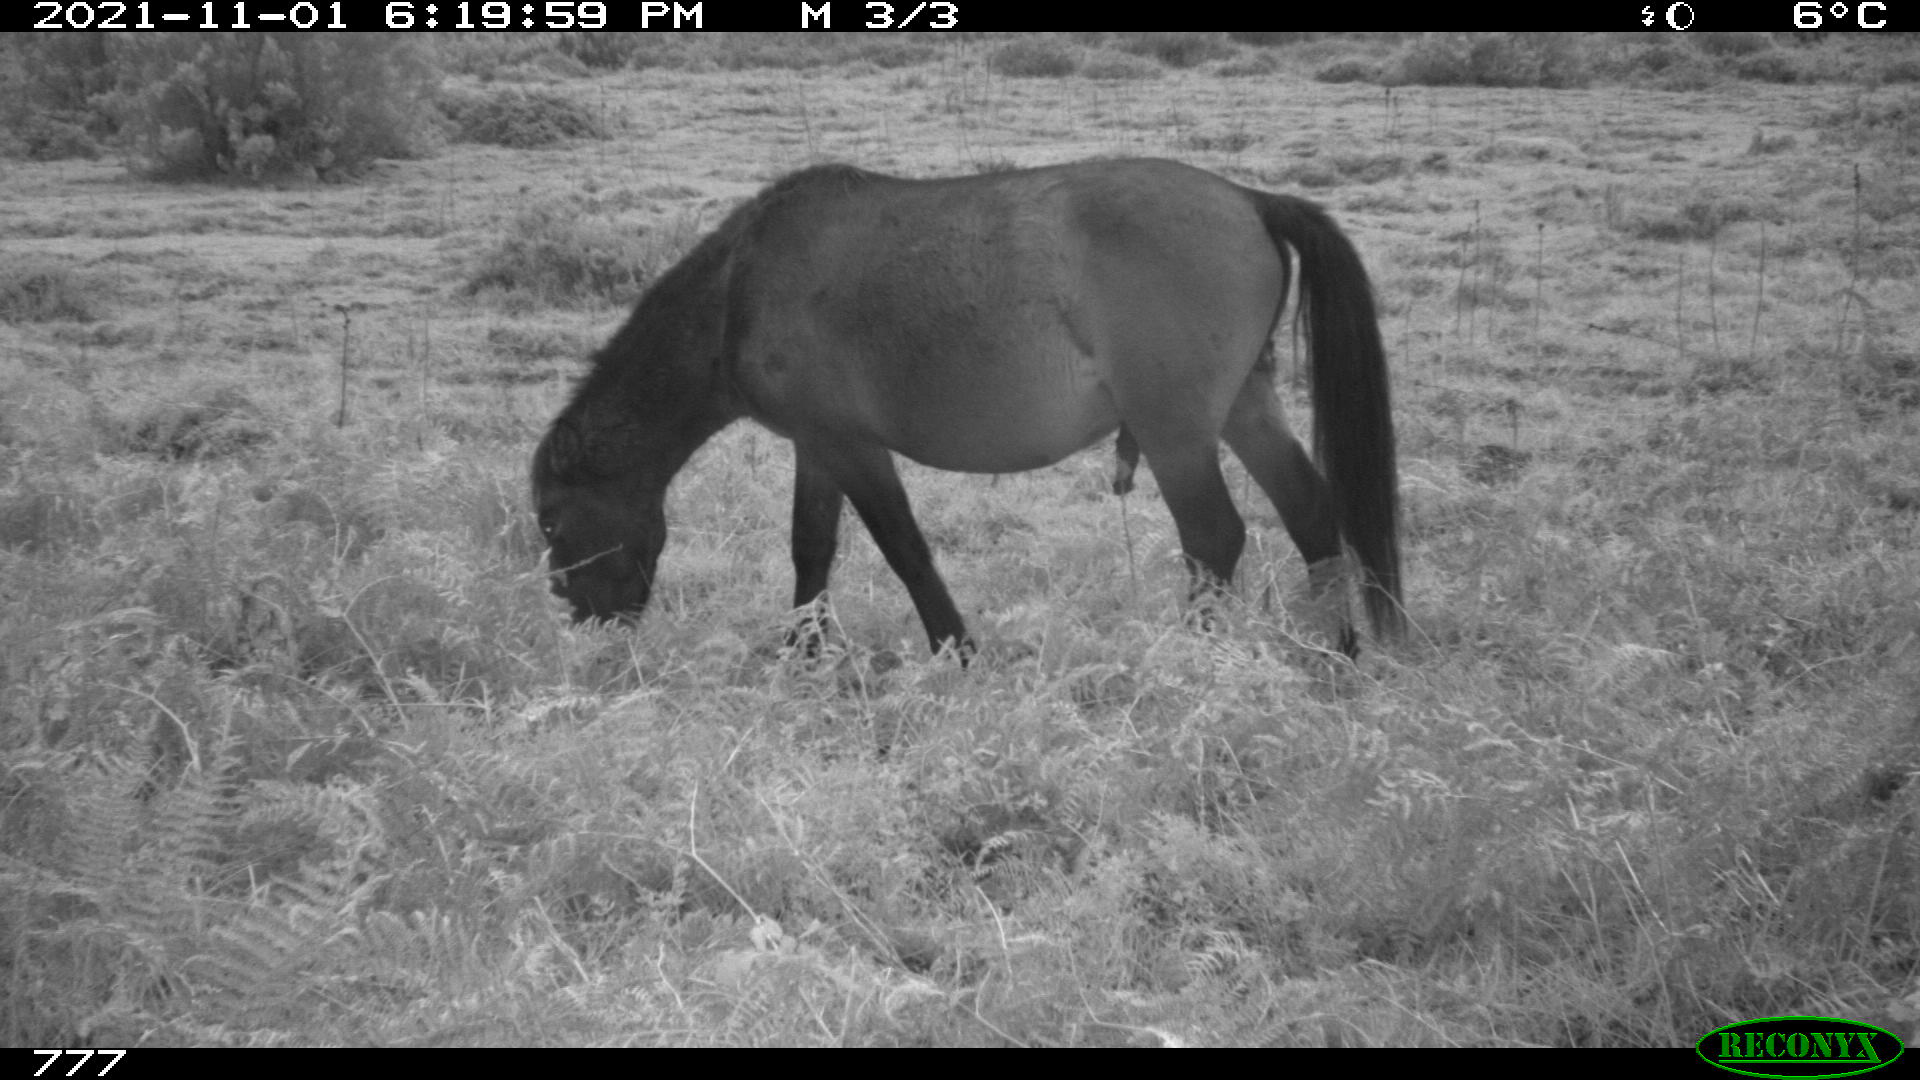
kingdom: Animalia
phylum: Chordata
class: Mammalia
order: Perissodactyla
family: Equidae
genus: Equus
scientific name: Equus caballus
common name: Horse
